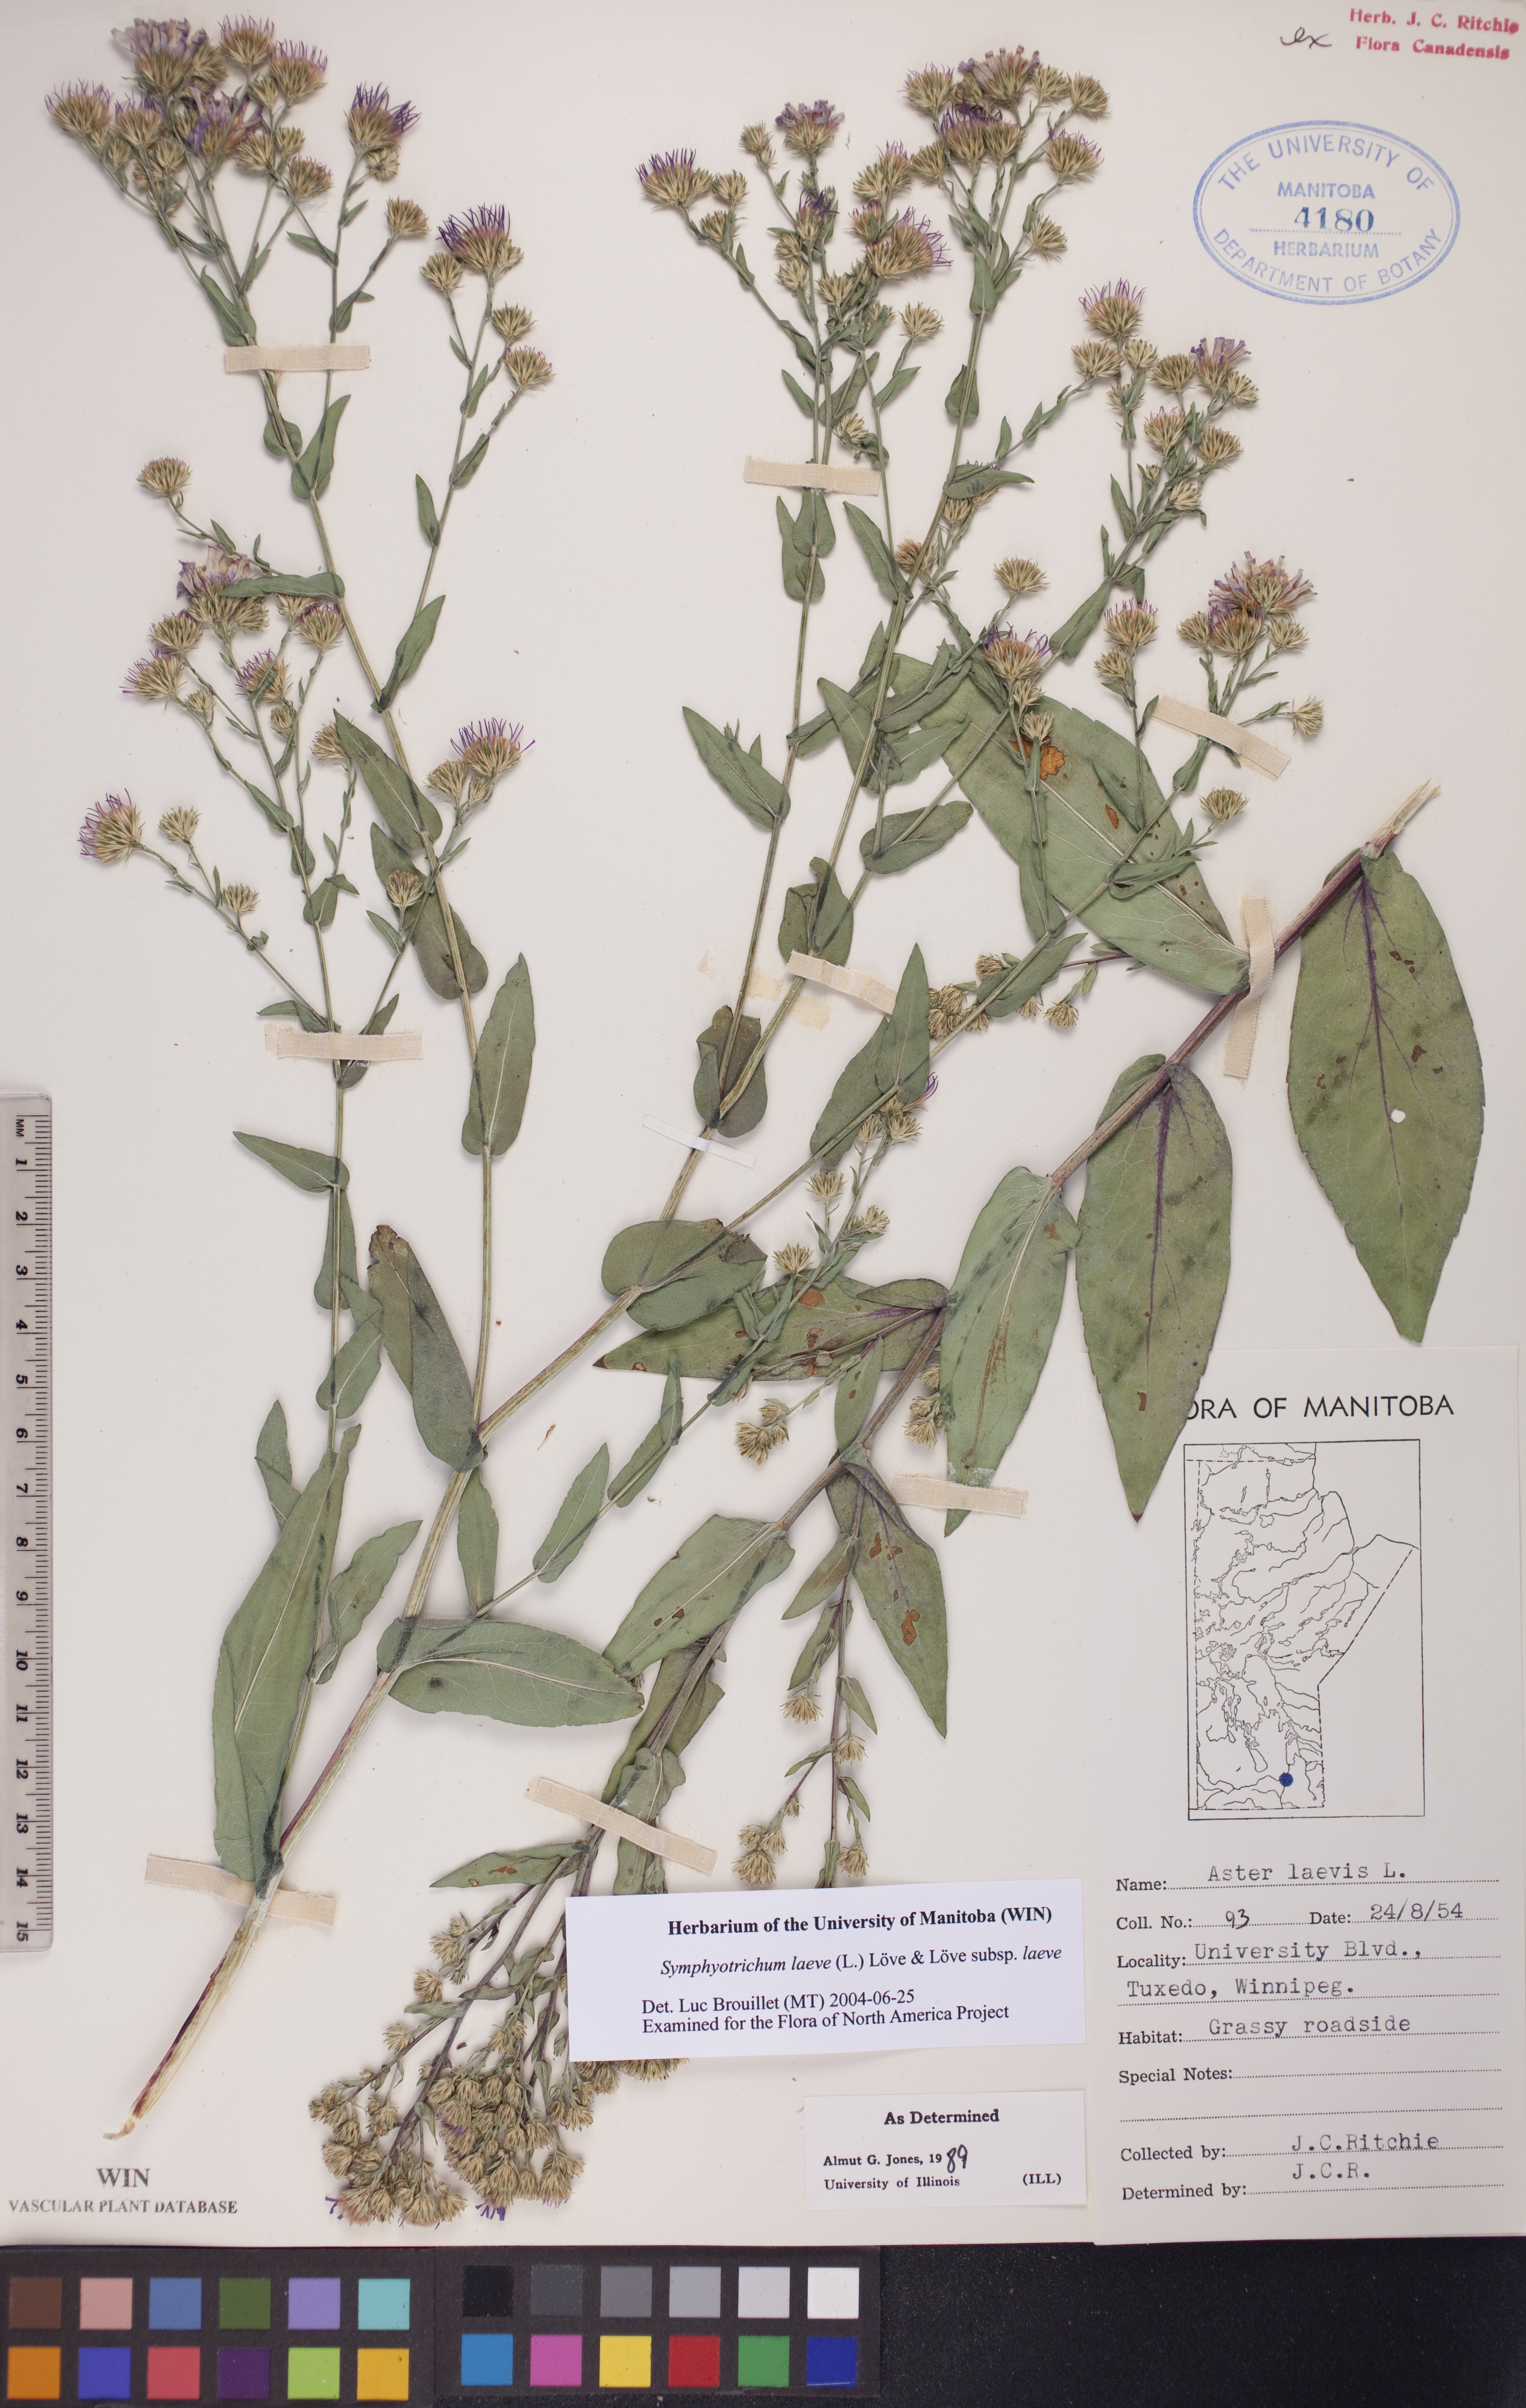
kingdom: Plantae
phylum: Tracheophyta
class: Magnoliopsida
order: Asterales
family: Asteraceae
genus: Symphyotrichum
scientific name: Symphyotrichum laeve
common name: Glaucous aster
